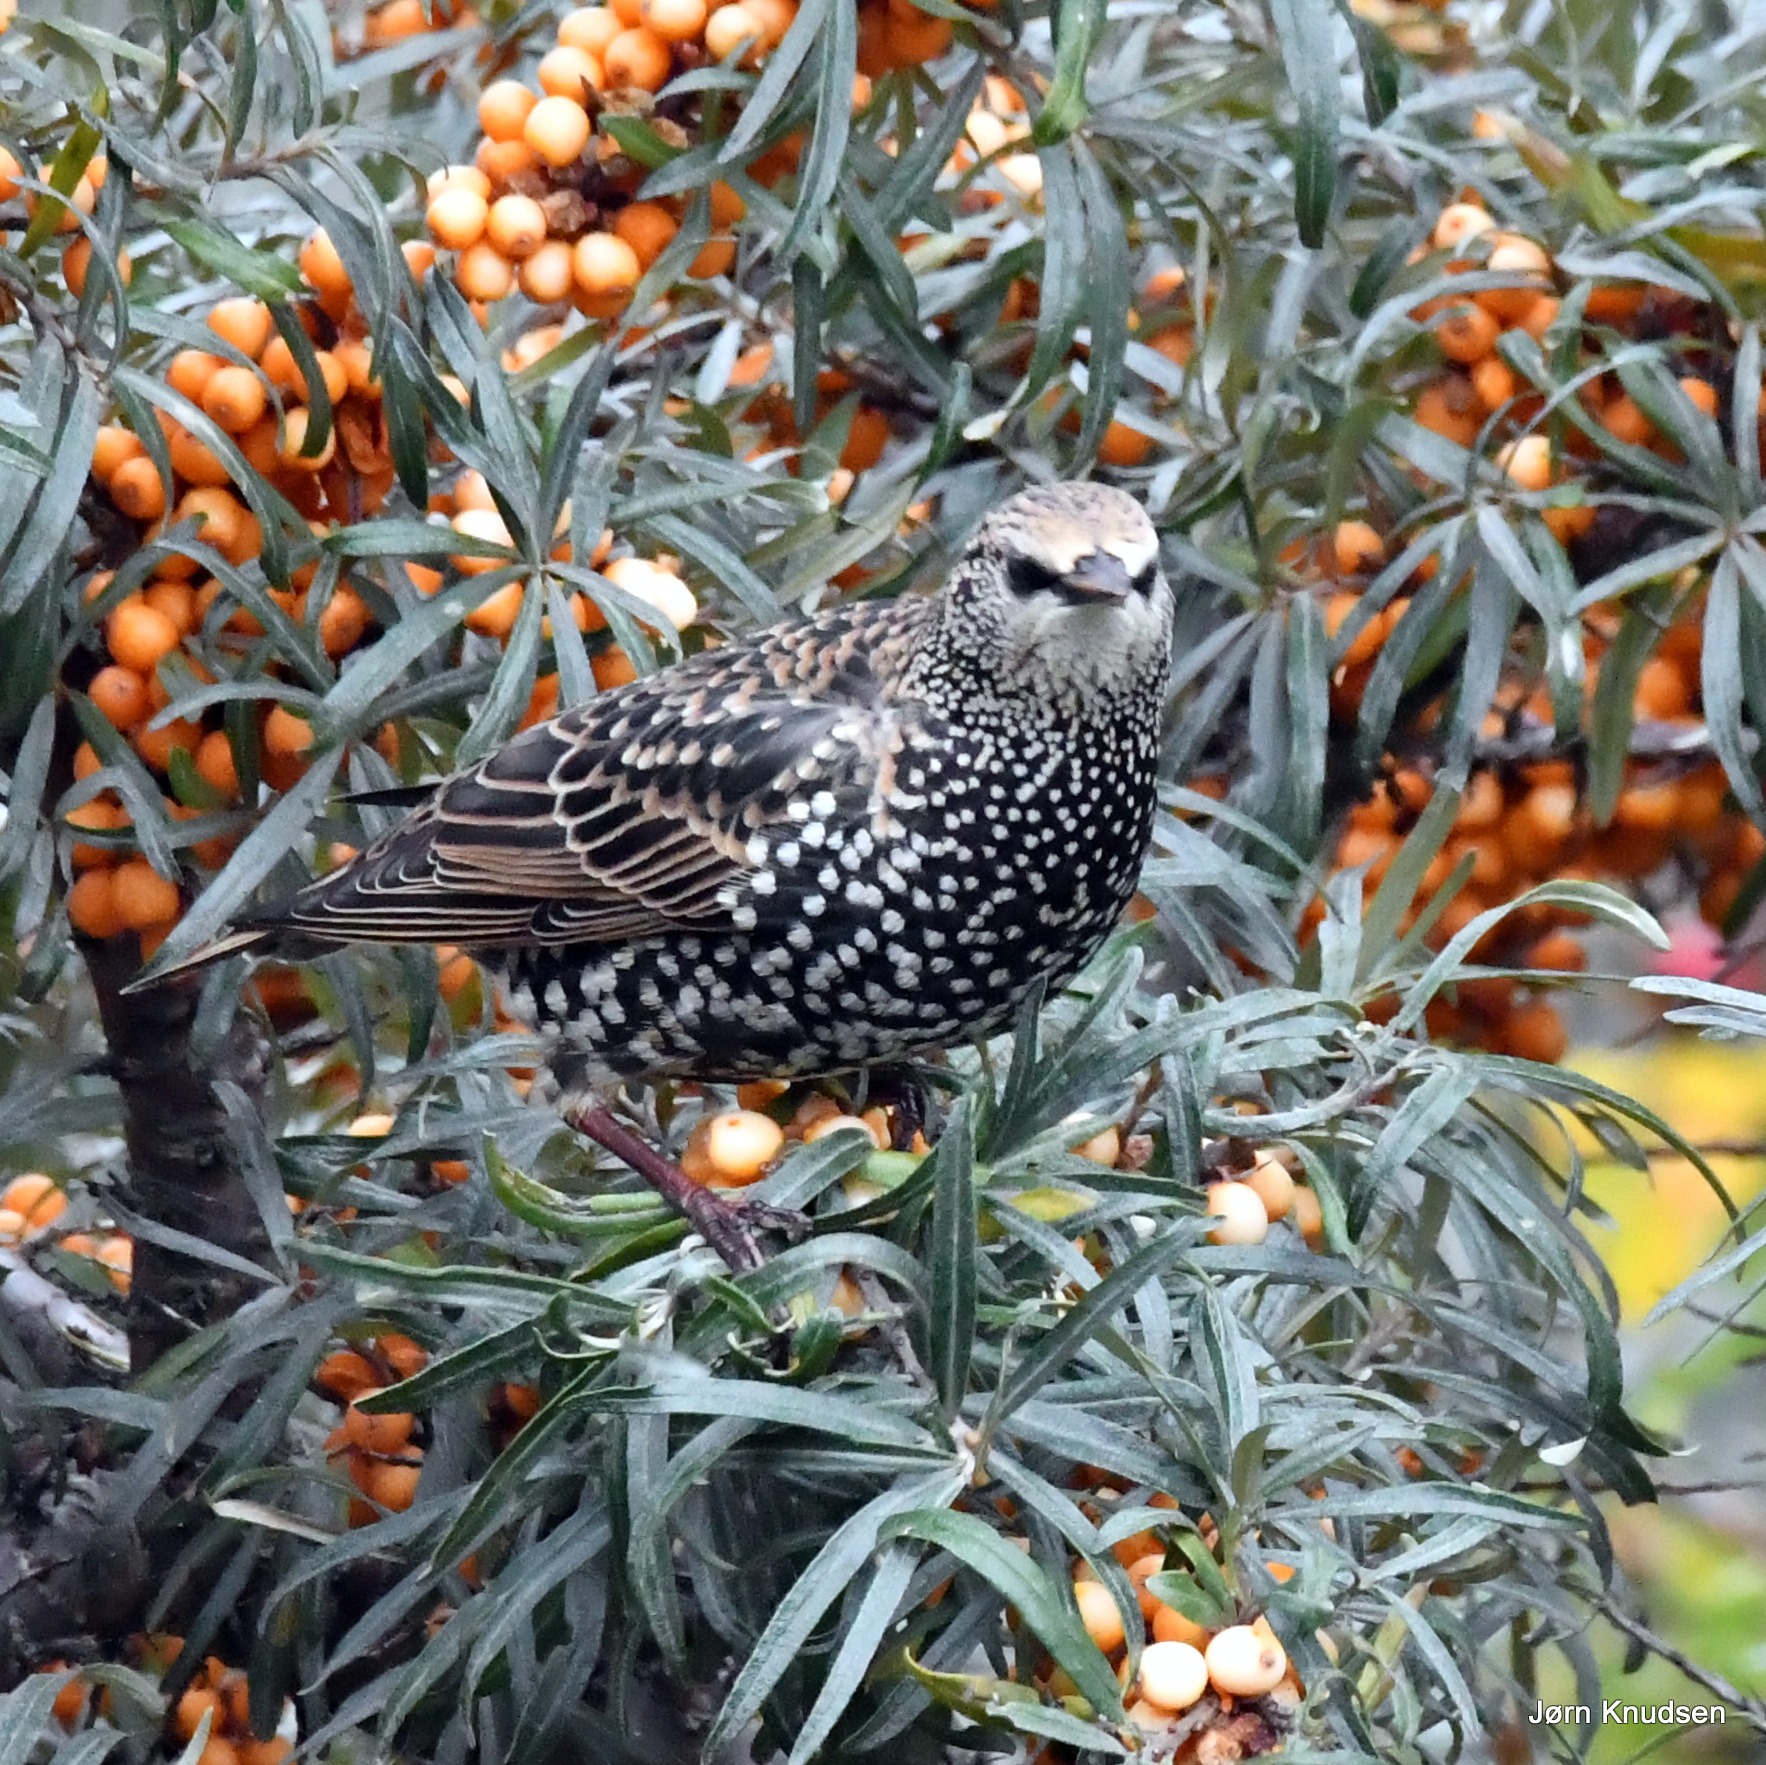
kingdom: Animalia
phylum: Chordata
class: Aves
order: Passeriformes
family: Sturnidae
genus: Sturnus
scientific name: Sturnus vulgaris
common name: Stær
